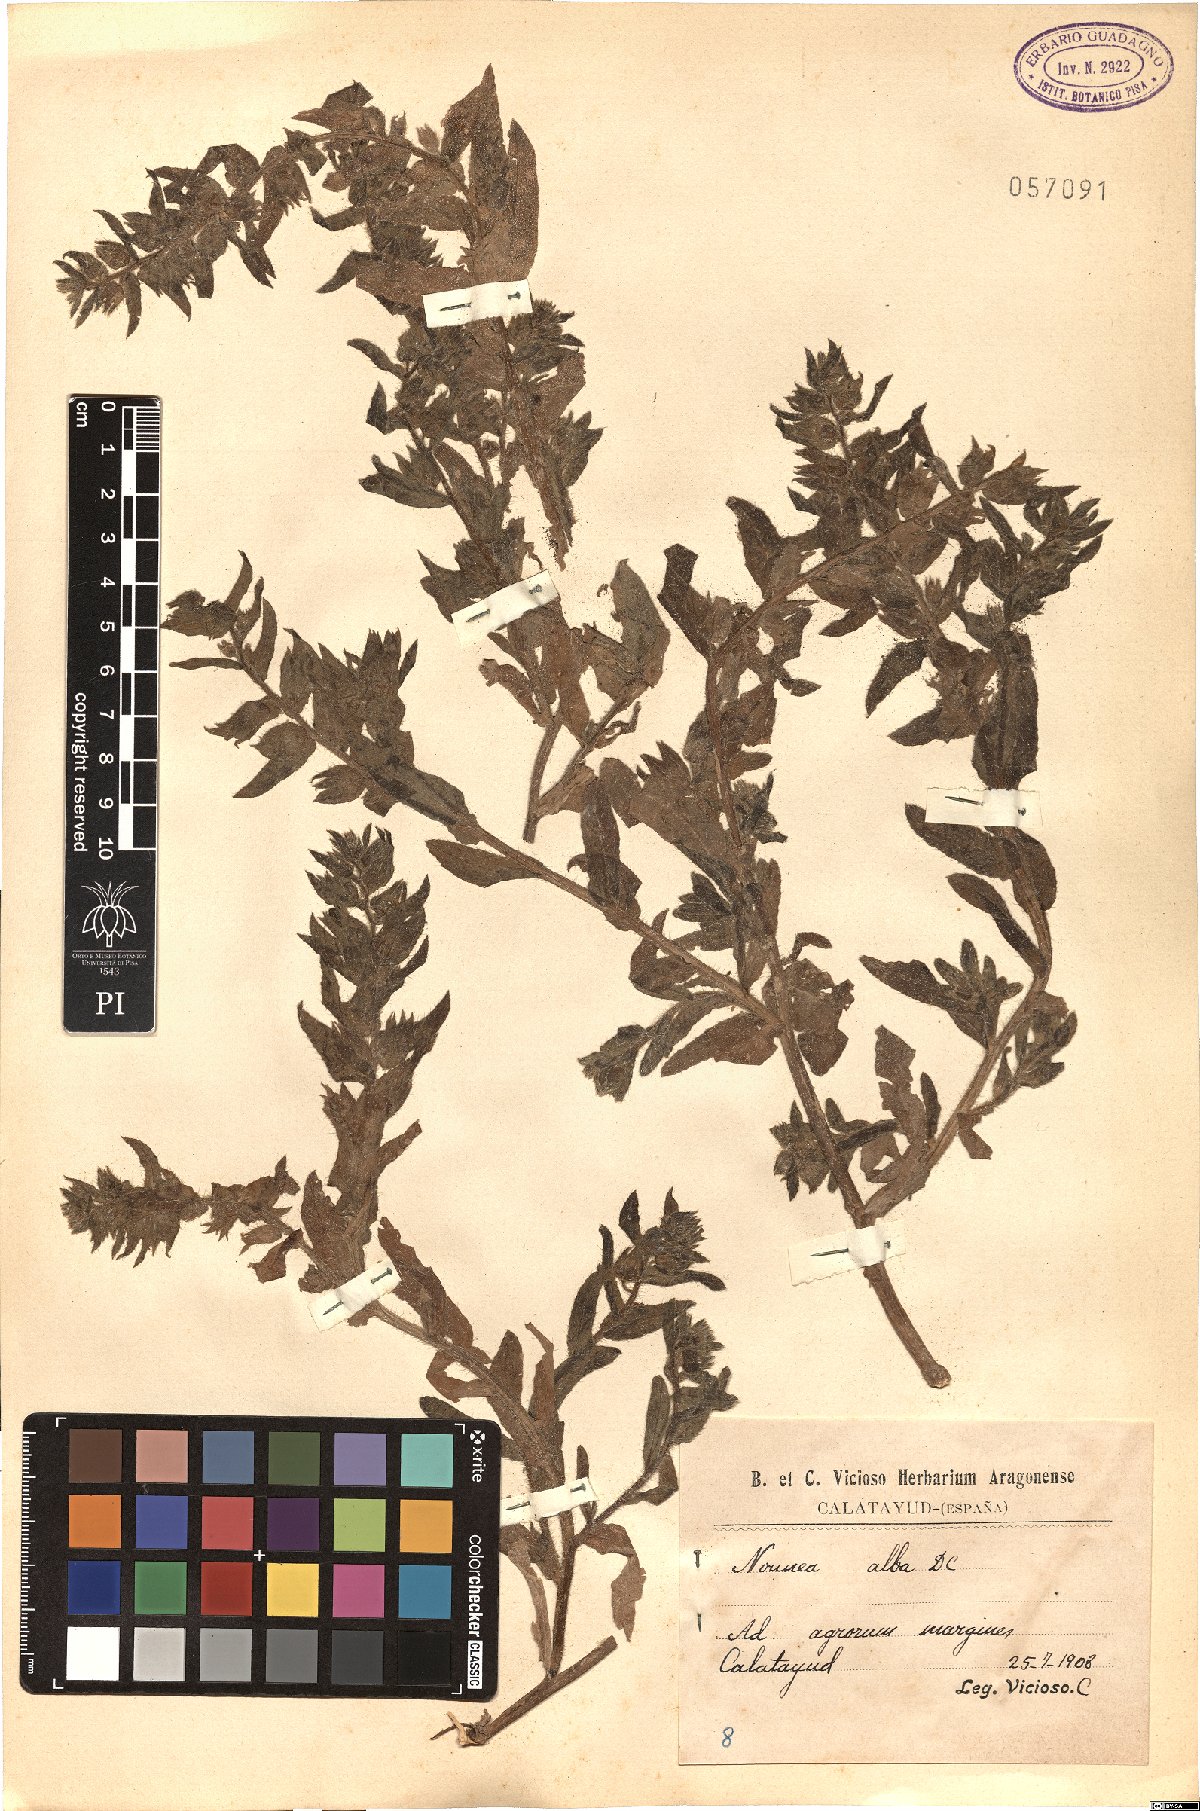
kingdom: Plantae
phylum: Tracheophyta
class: Magnoliopsida
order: Boraginales
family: Boraginaceae
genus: Nonea
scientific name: Nonea echioides
